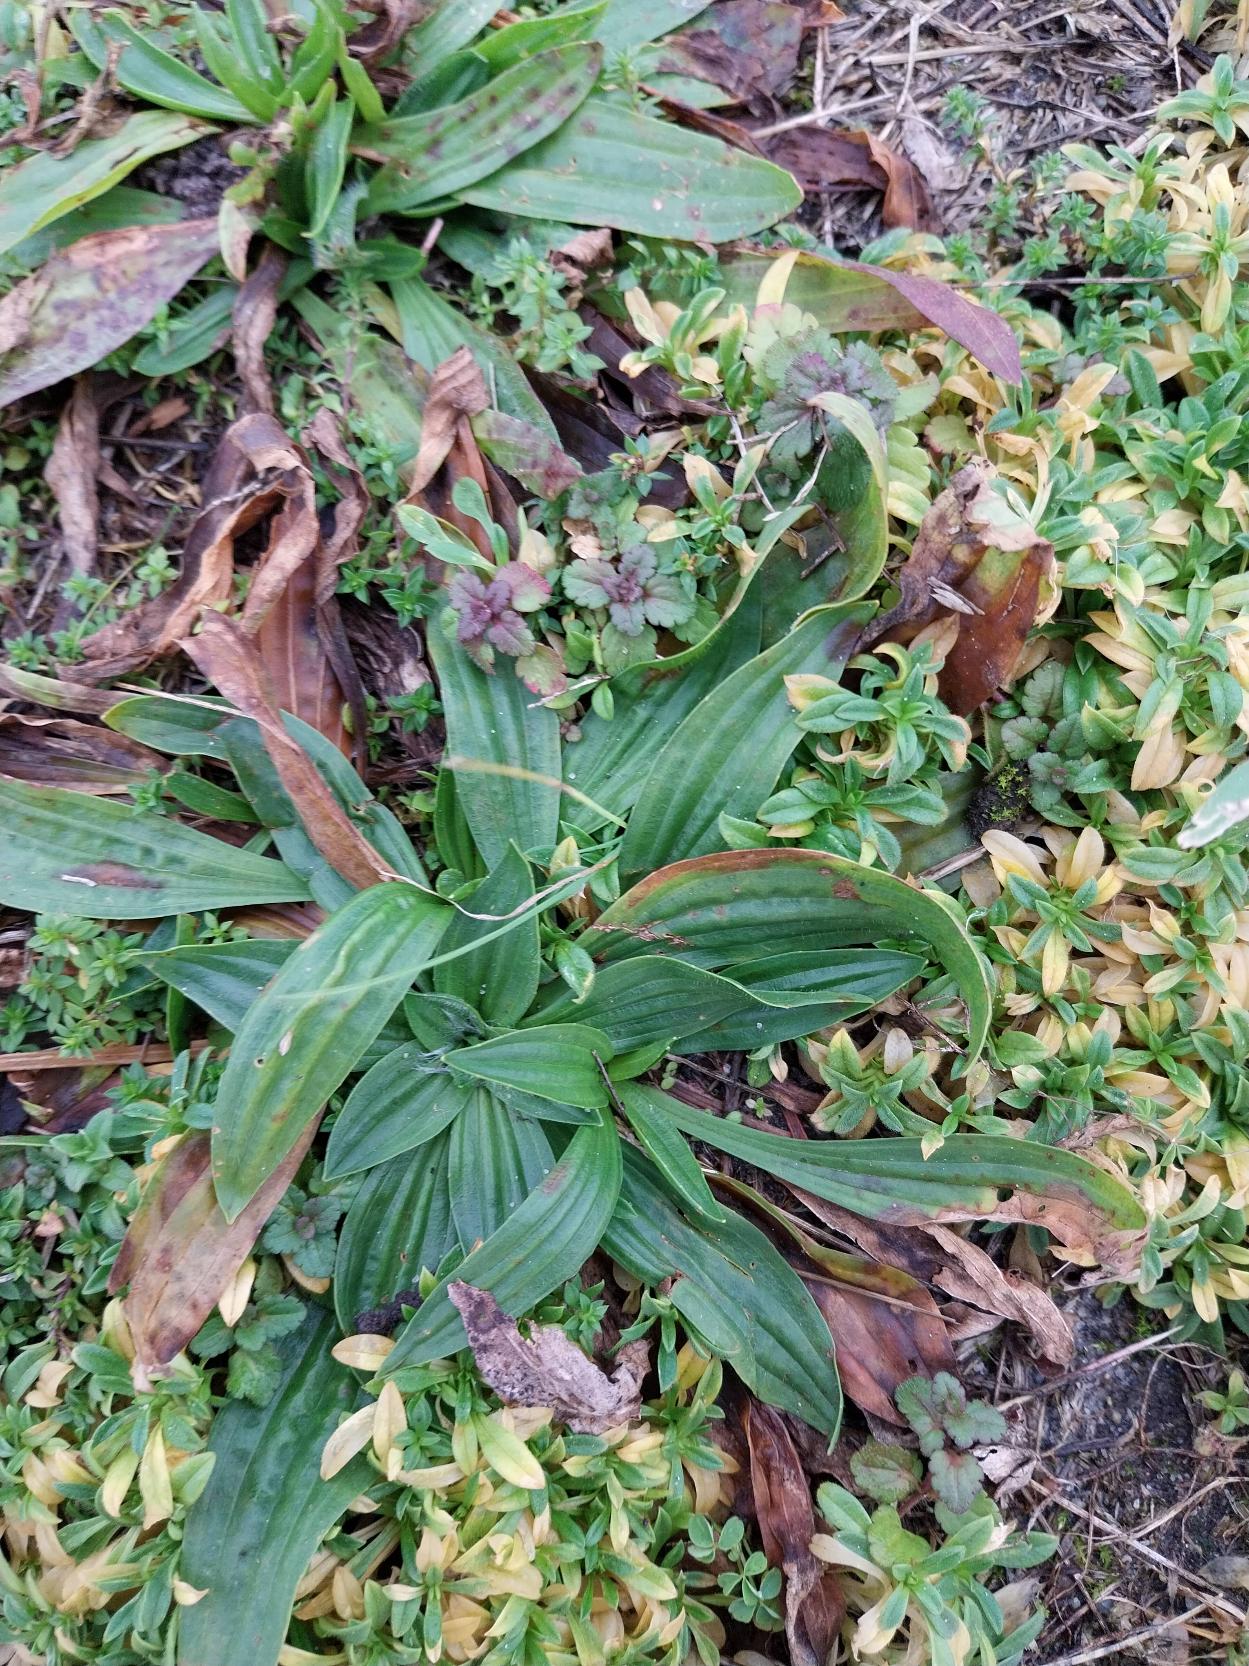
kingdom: Plantae
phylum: Tracheophyta
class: Magnoliopsida
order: Lamiales
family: Plantaginaceae
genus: Plantago
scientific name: Plantago lanceolata
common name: Lancet-vejbred
